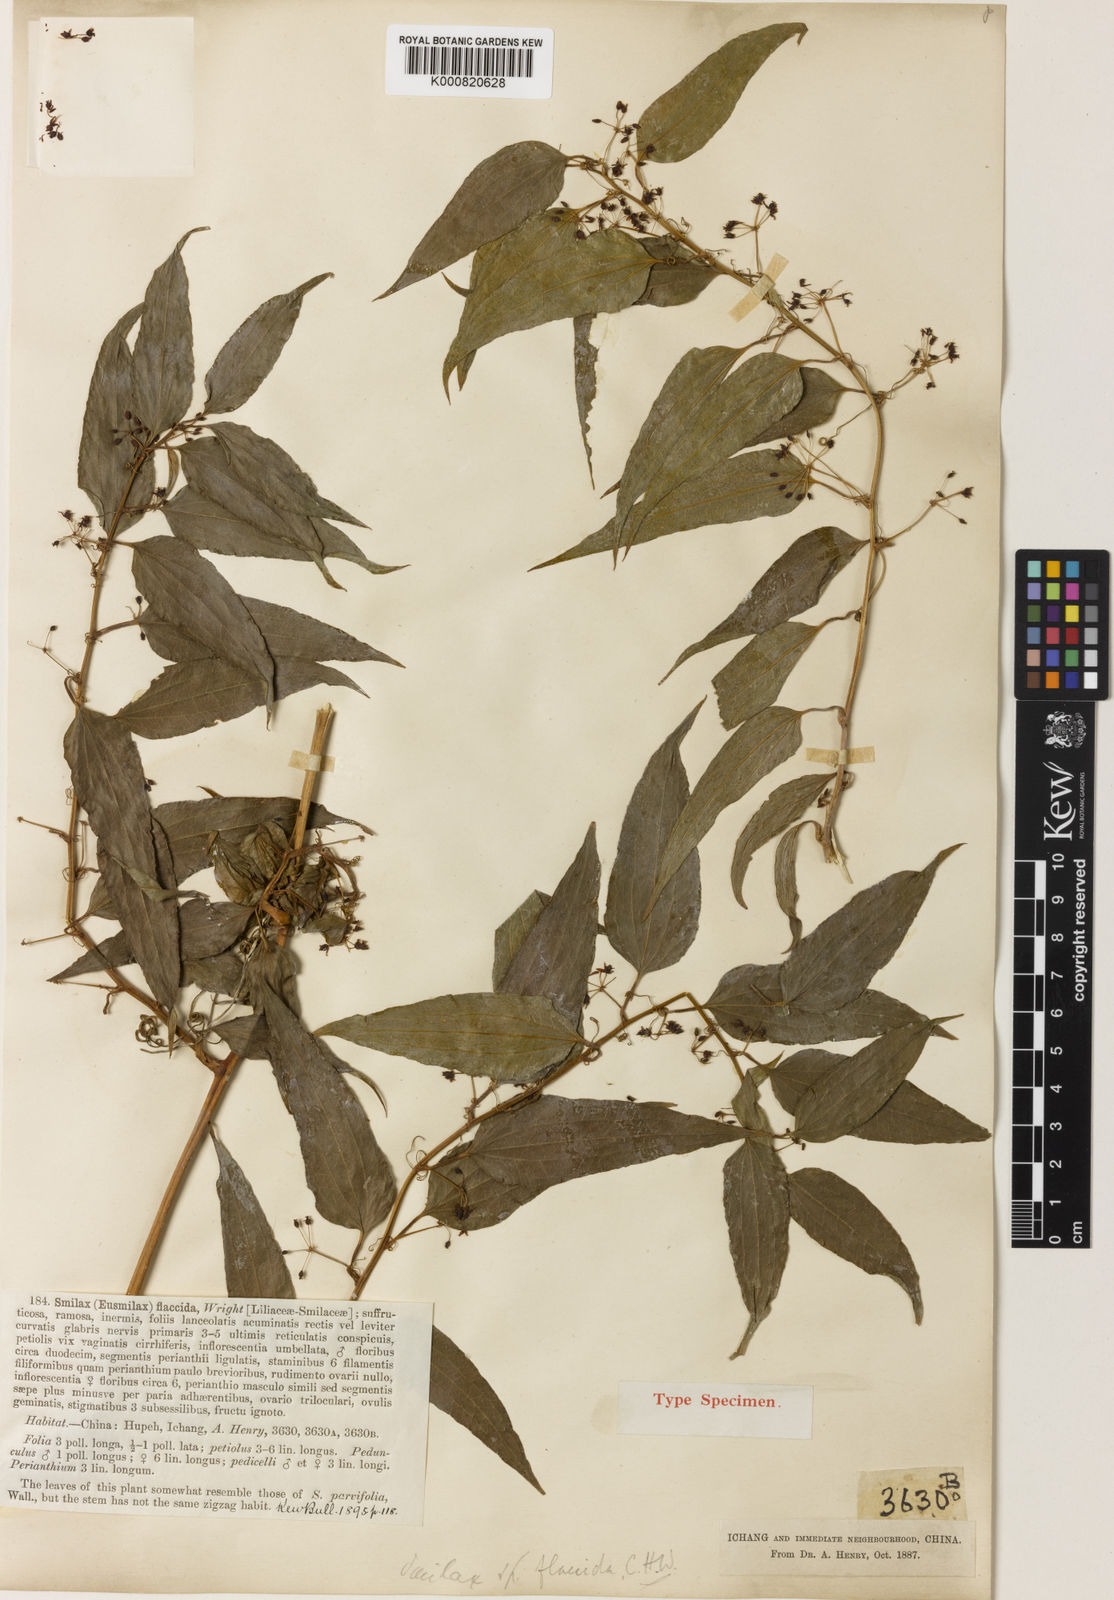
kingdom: Plantae
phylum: Tracheophyta
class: Liliopsida
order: Liliales
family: Smilacaceae
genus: Smilax
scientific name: Smilax riparia
